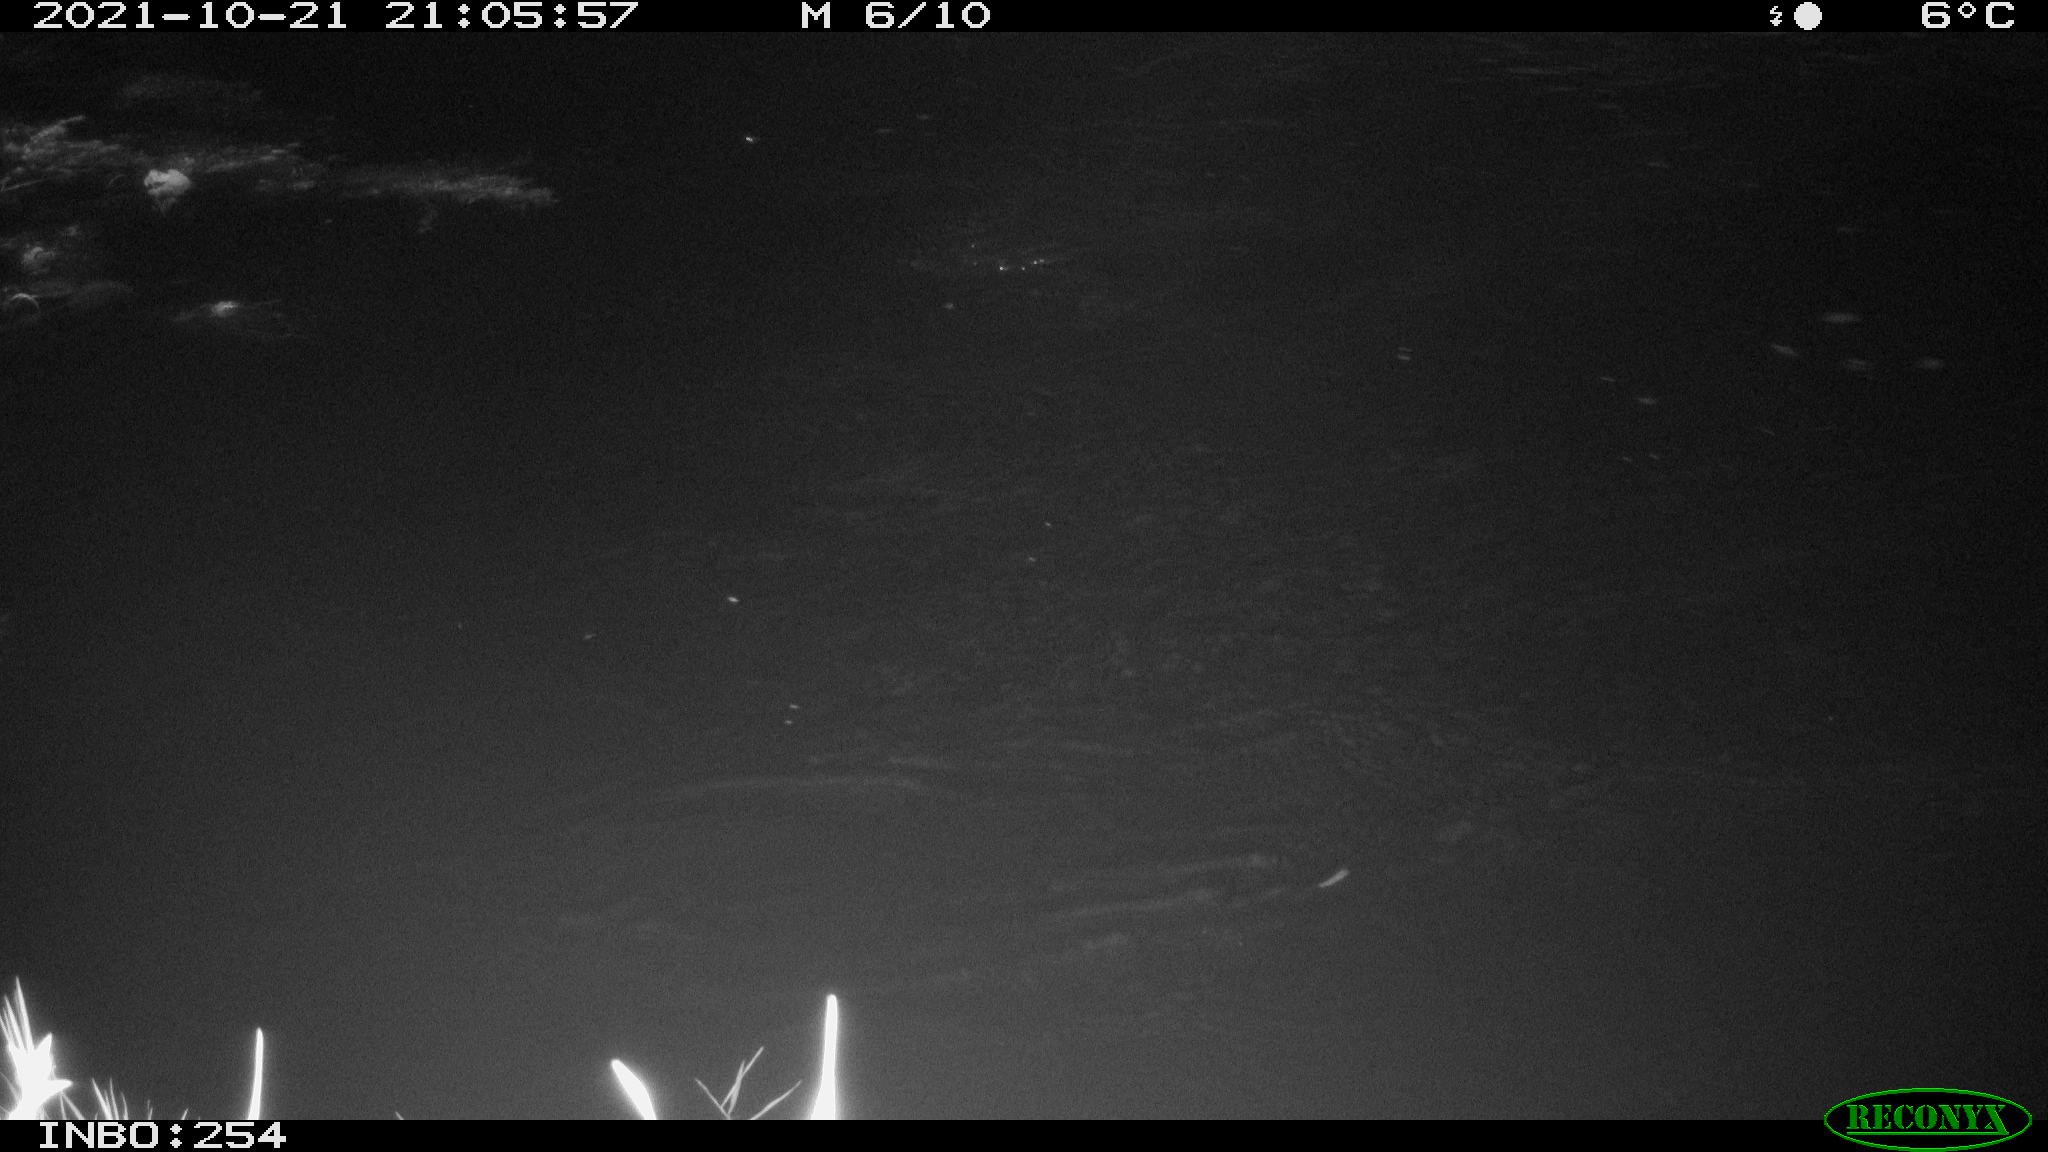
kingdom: Animalia
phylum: Chordata
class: Mammalia
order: Rodentia
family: Muridae
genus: Rattus
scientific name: Rattus norvegicus
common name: Brown rat
